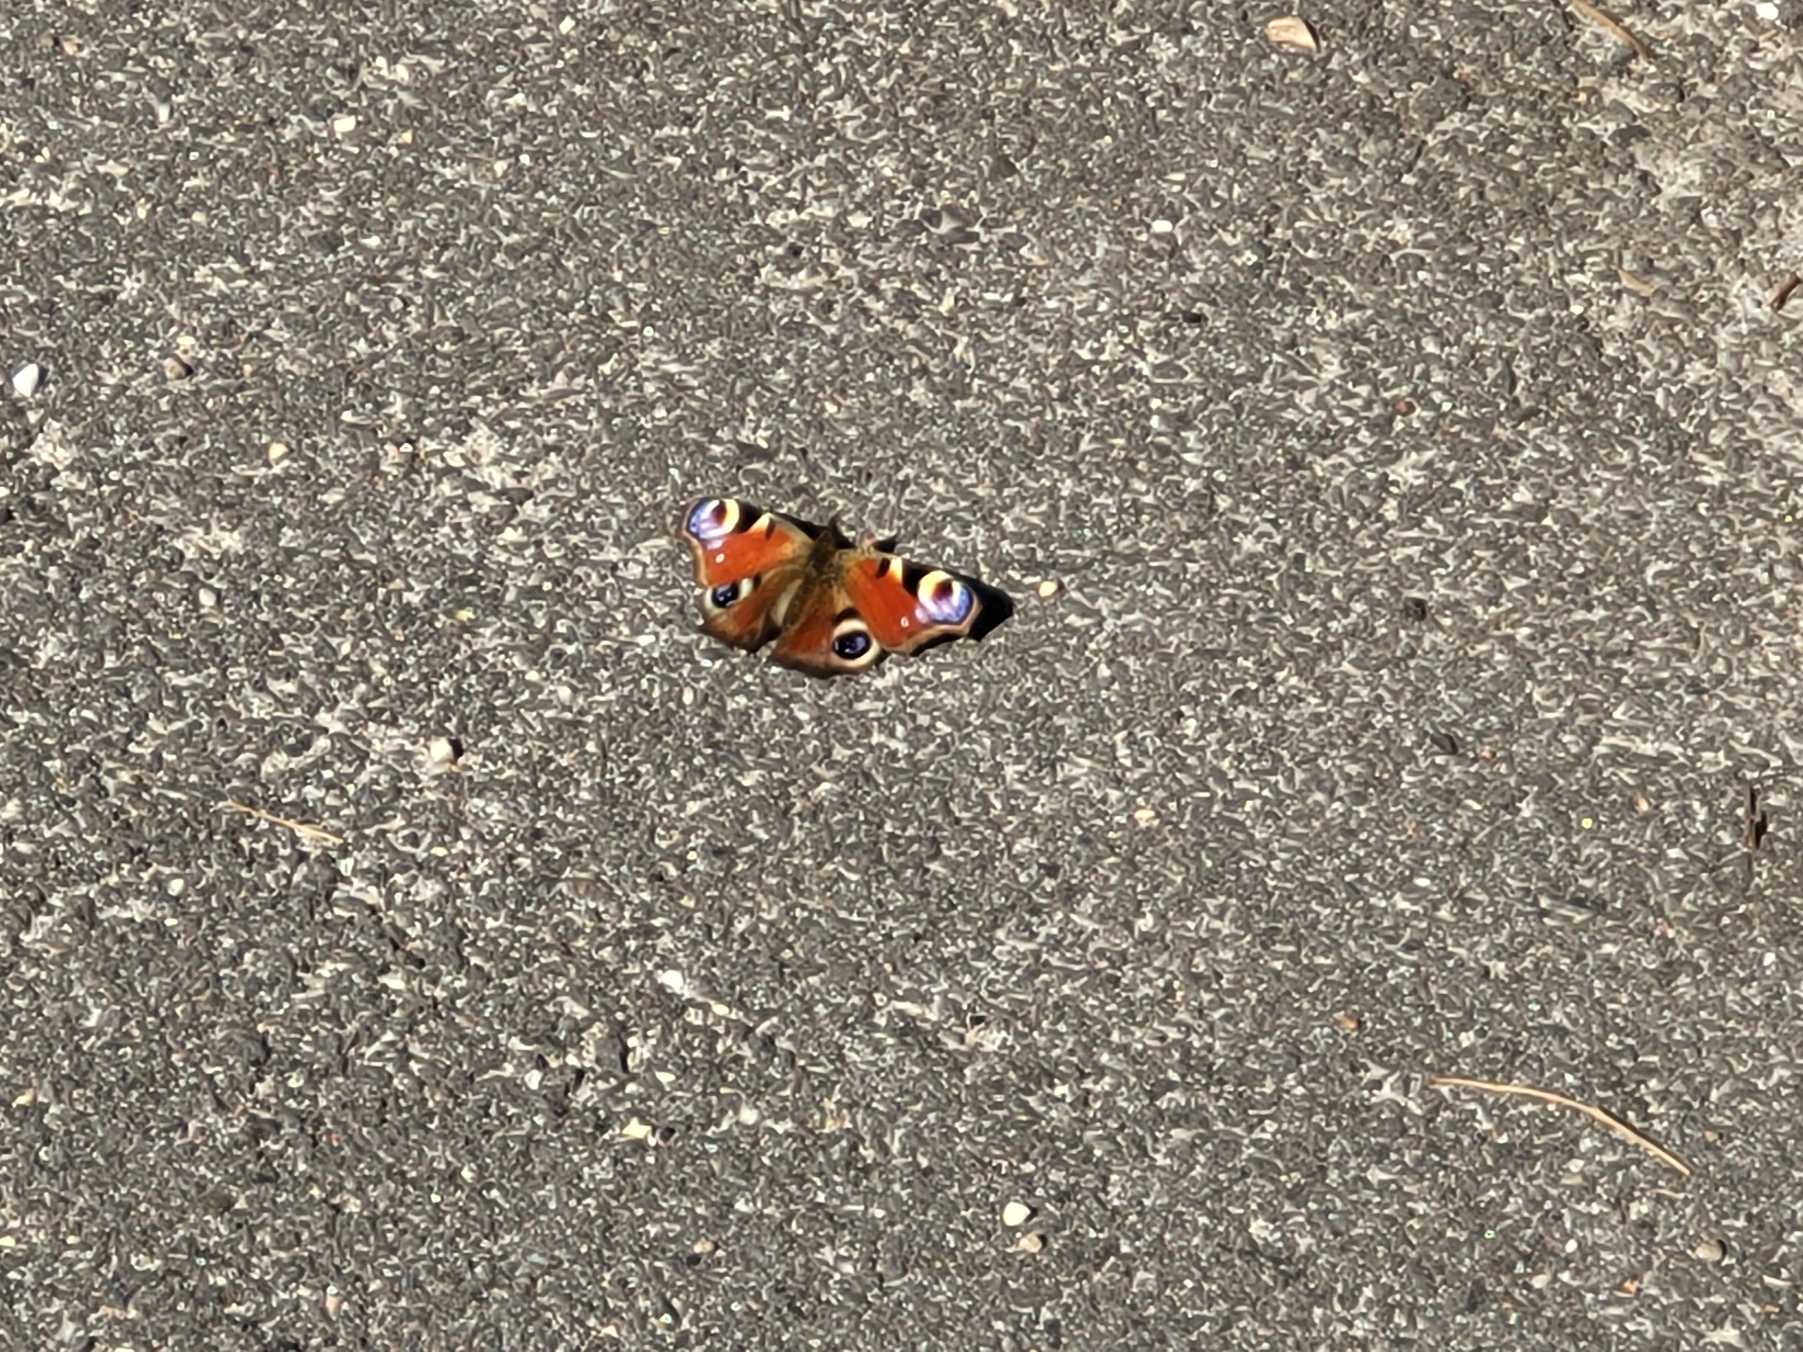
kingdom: Animalia
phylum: Arthropoda
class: Insecta
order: Lepidoptera
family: Nymphalidae
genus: Aglais
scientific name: Aglais io
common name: Dagpåfugleøje
